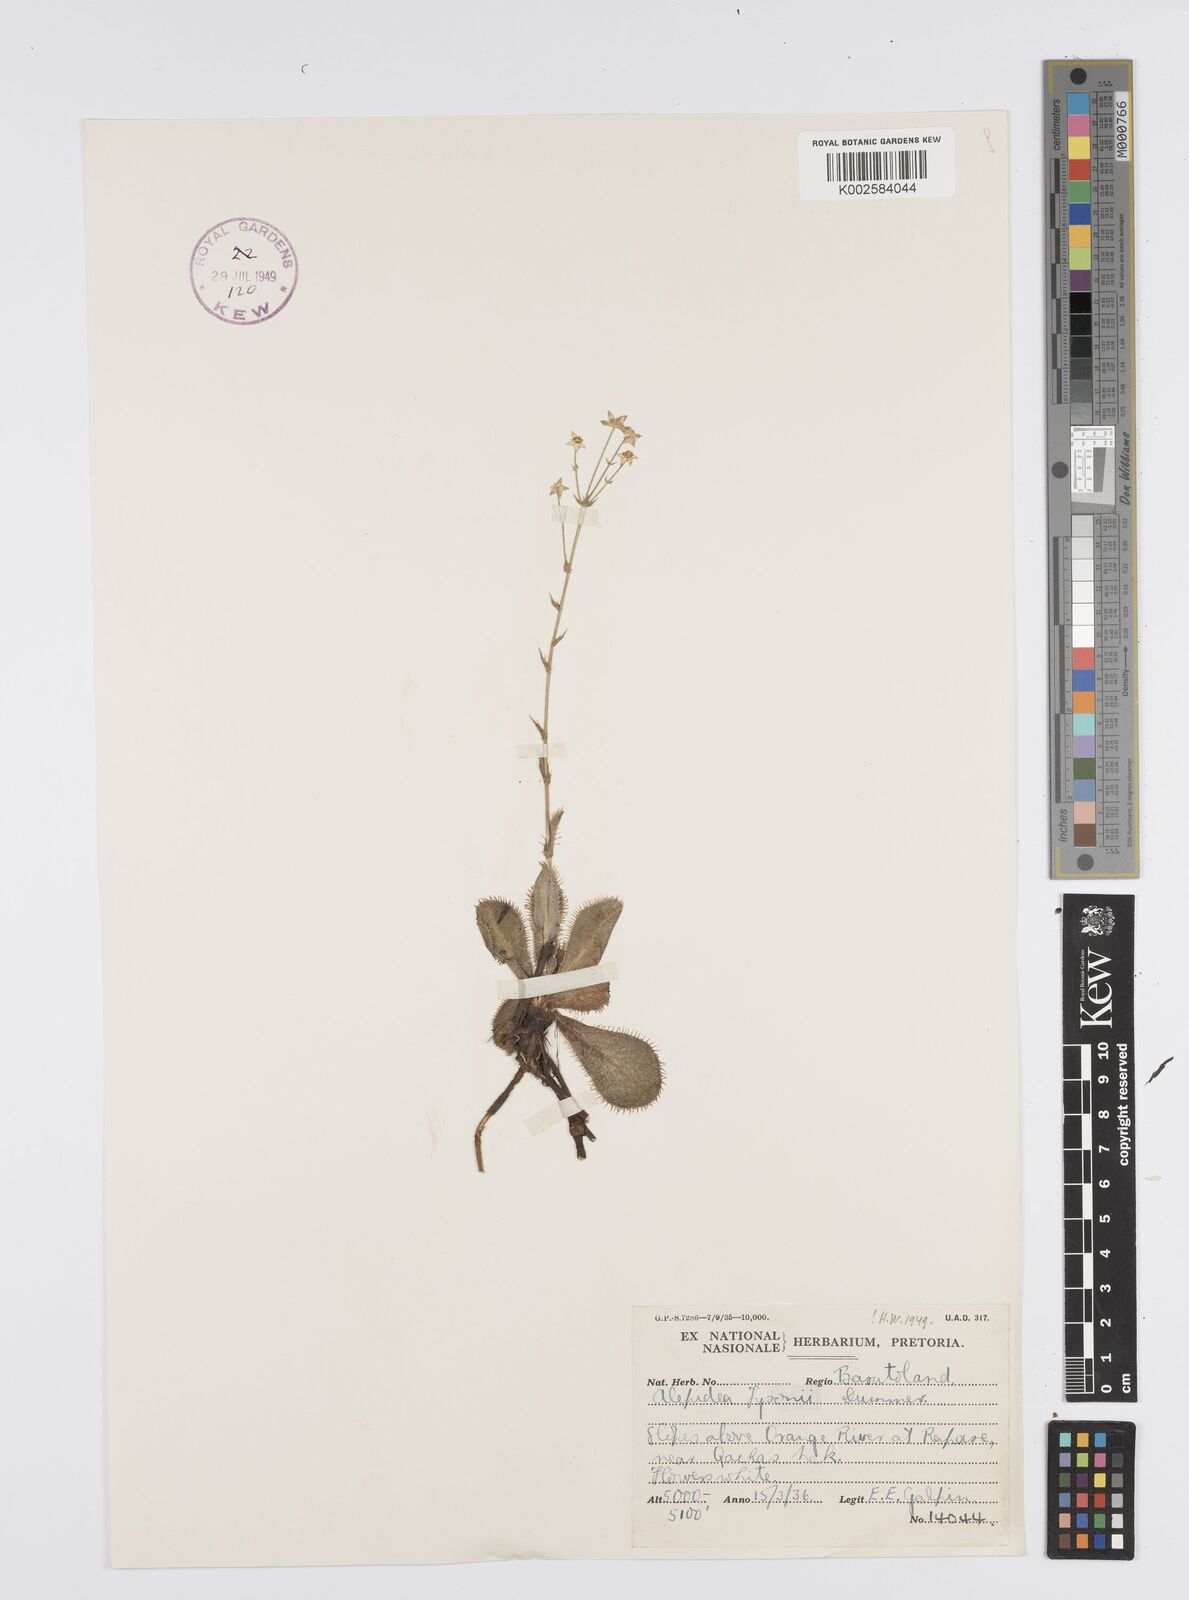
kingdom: Plantae
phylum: Tracheophyta
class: Magnoliopsida
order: Apiales
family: Apiaceae
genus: Alepidea
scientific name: Alepidea woodii
